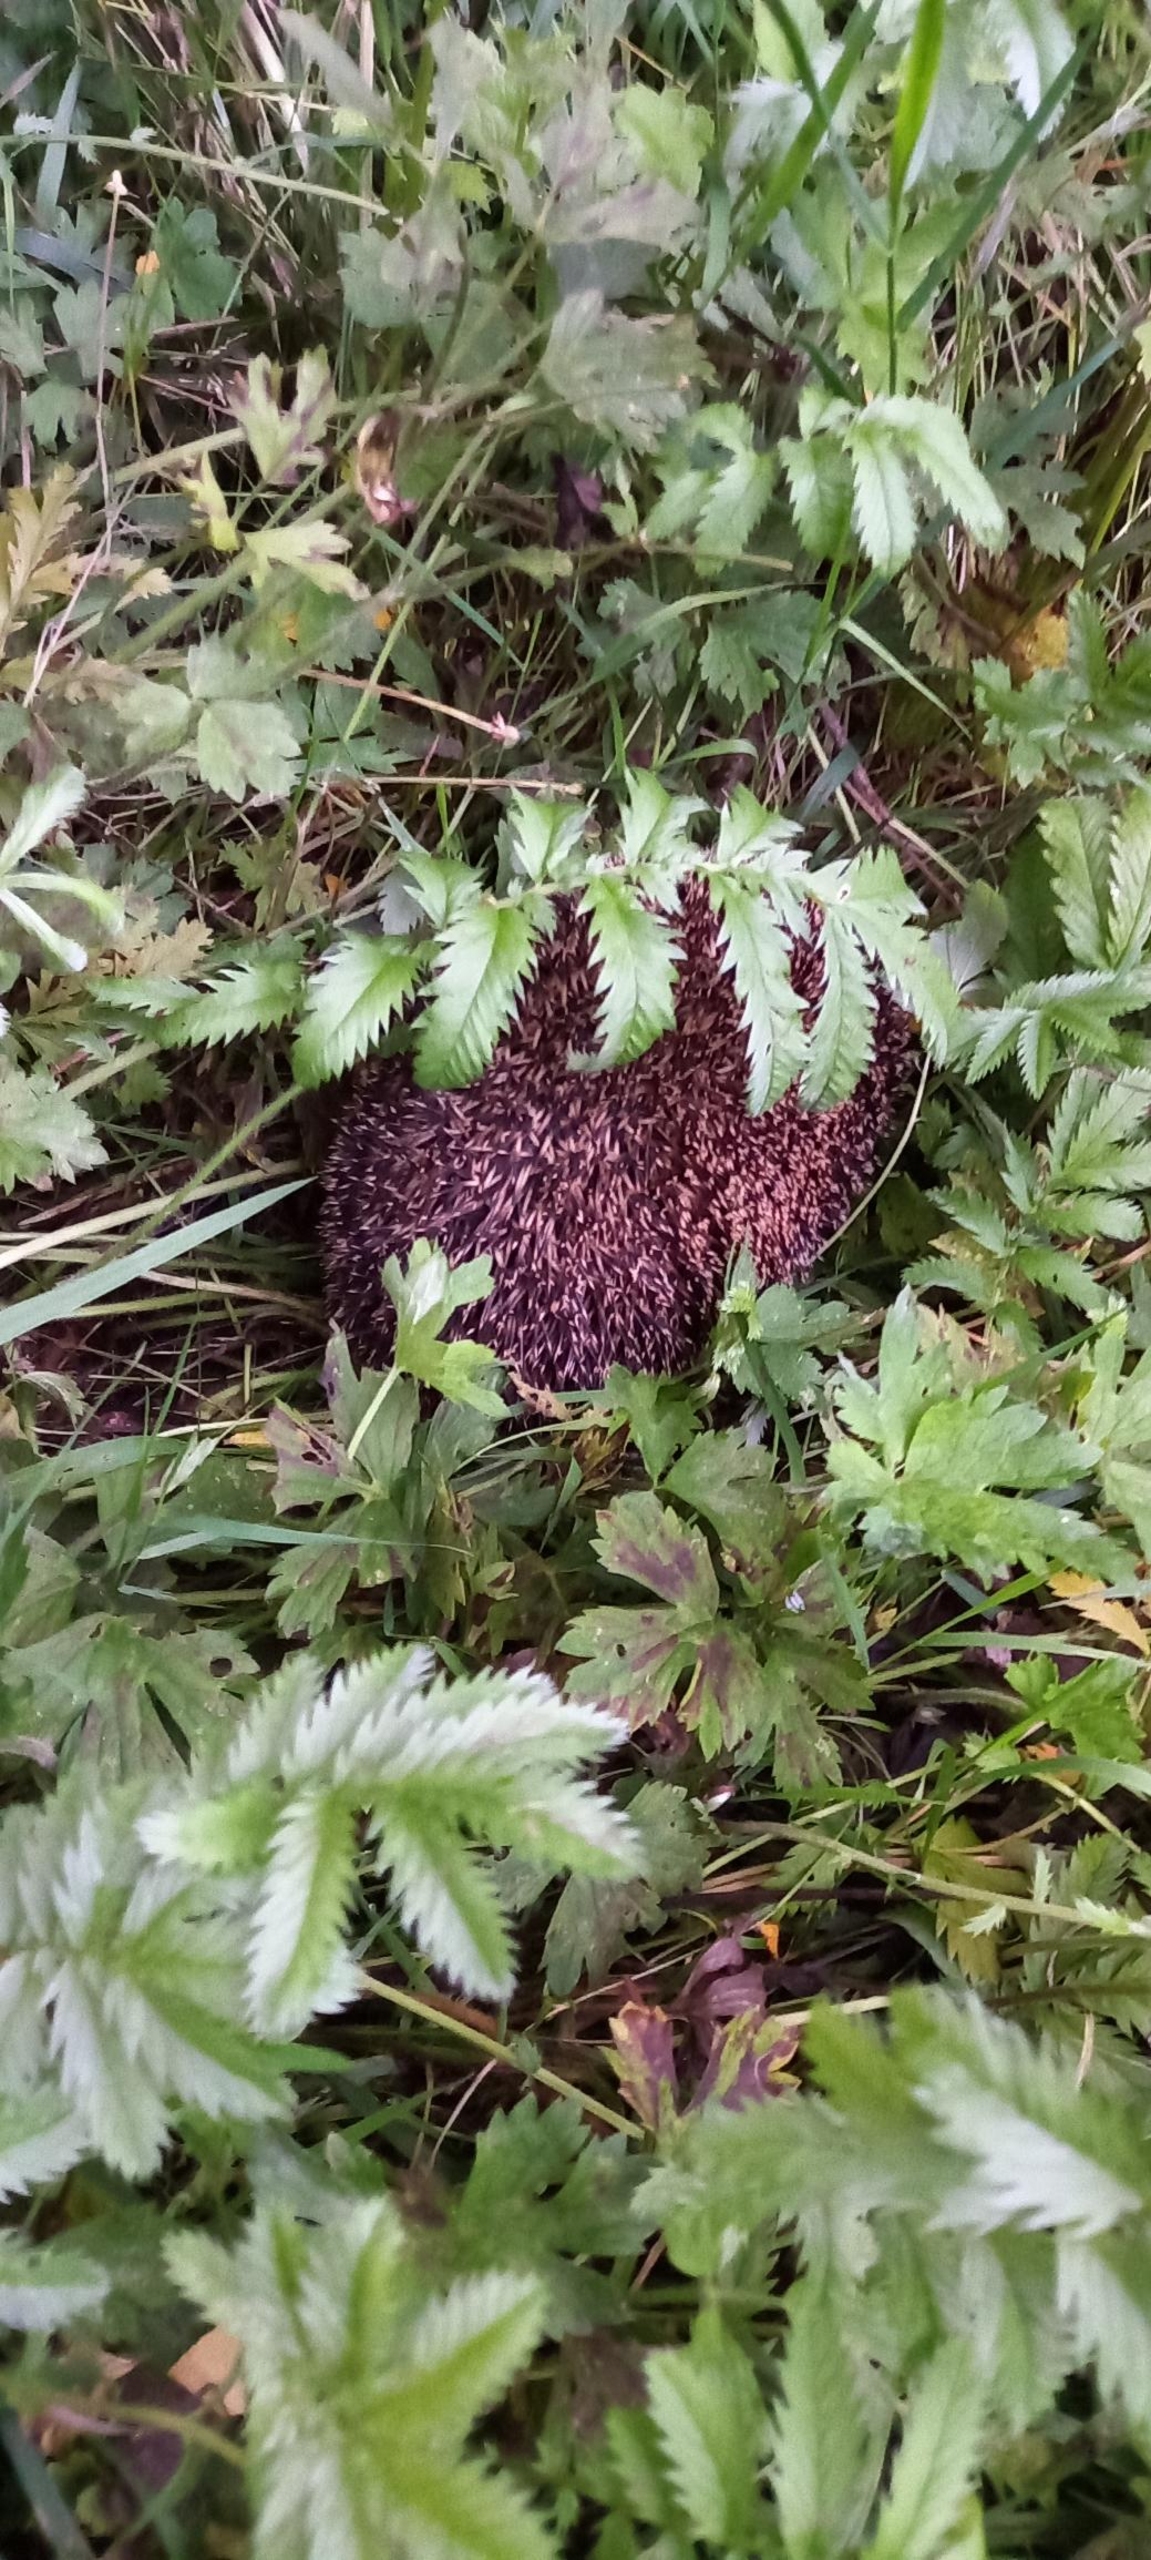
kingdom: Animalia
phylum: Chordata
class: Mammalia
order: Erinaceomorpha
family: Erinaceidae
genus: Erinaceus
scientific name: Erinaceus europaeus
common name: Pindsvin
